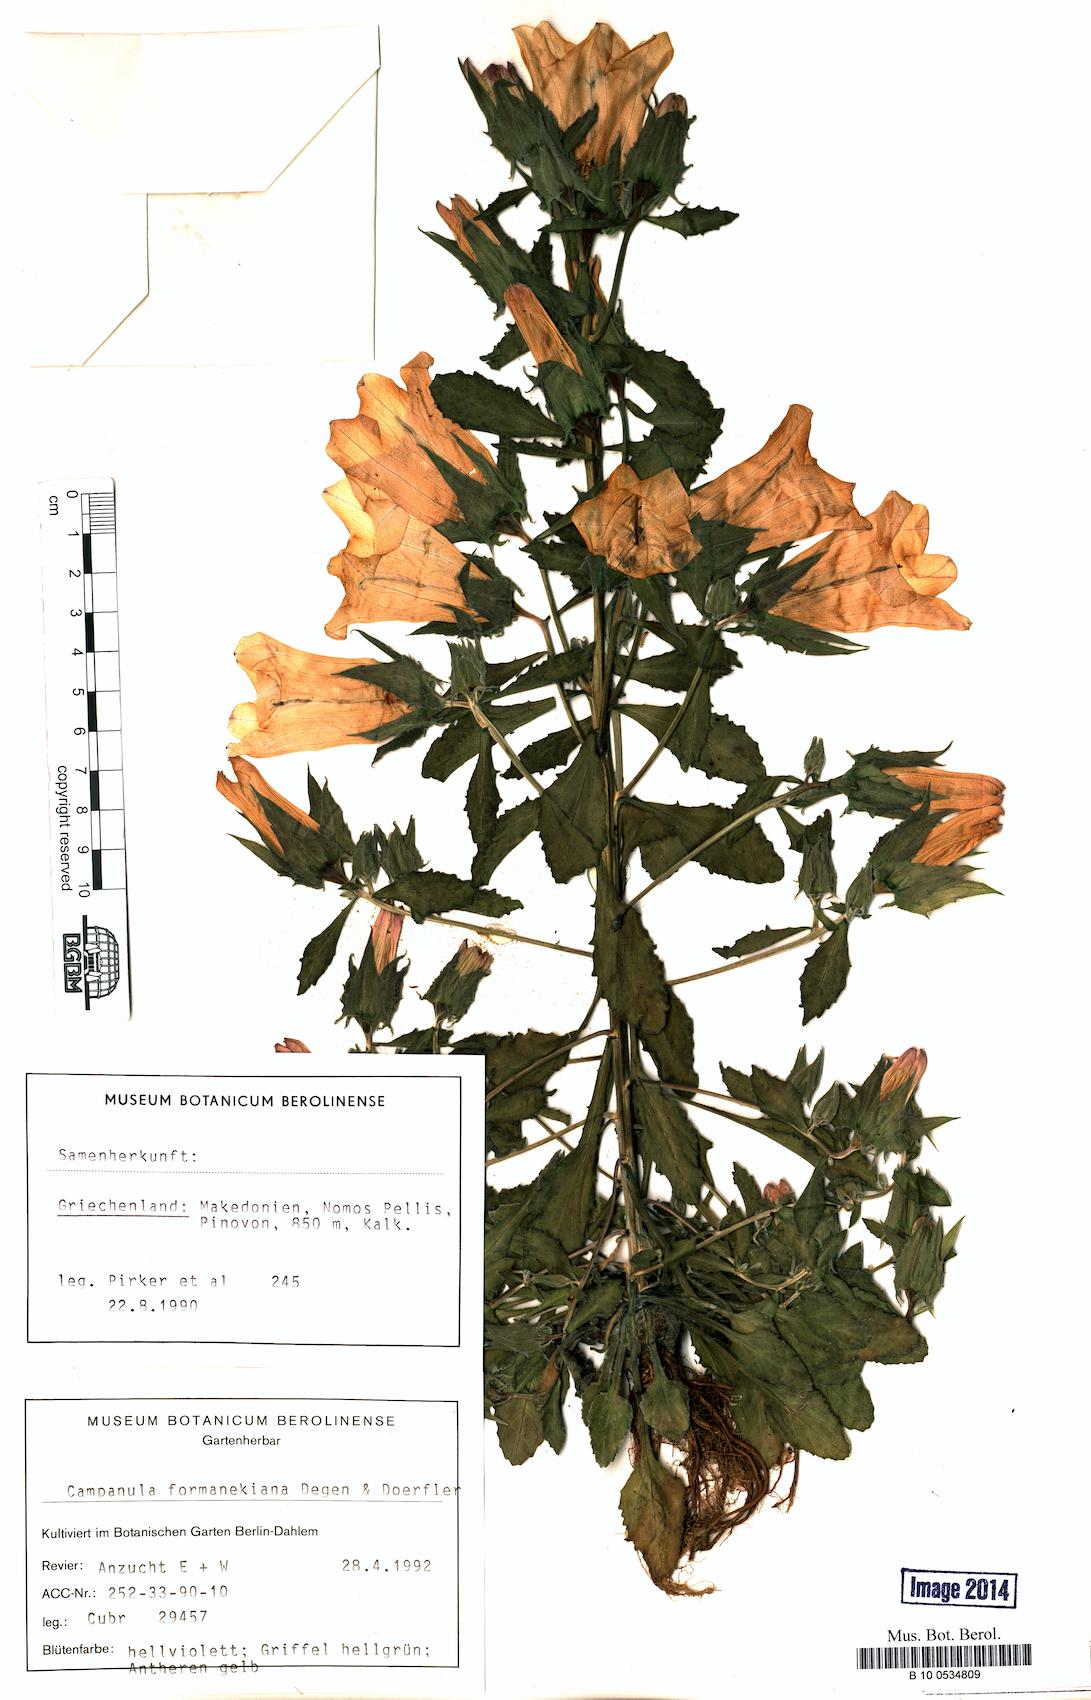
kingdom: Plantae
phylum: Tracheophyta
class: Magnoliopsida
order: Asterales
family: Campanulaceae
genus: Campanula
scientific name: Campanula formanekiana
